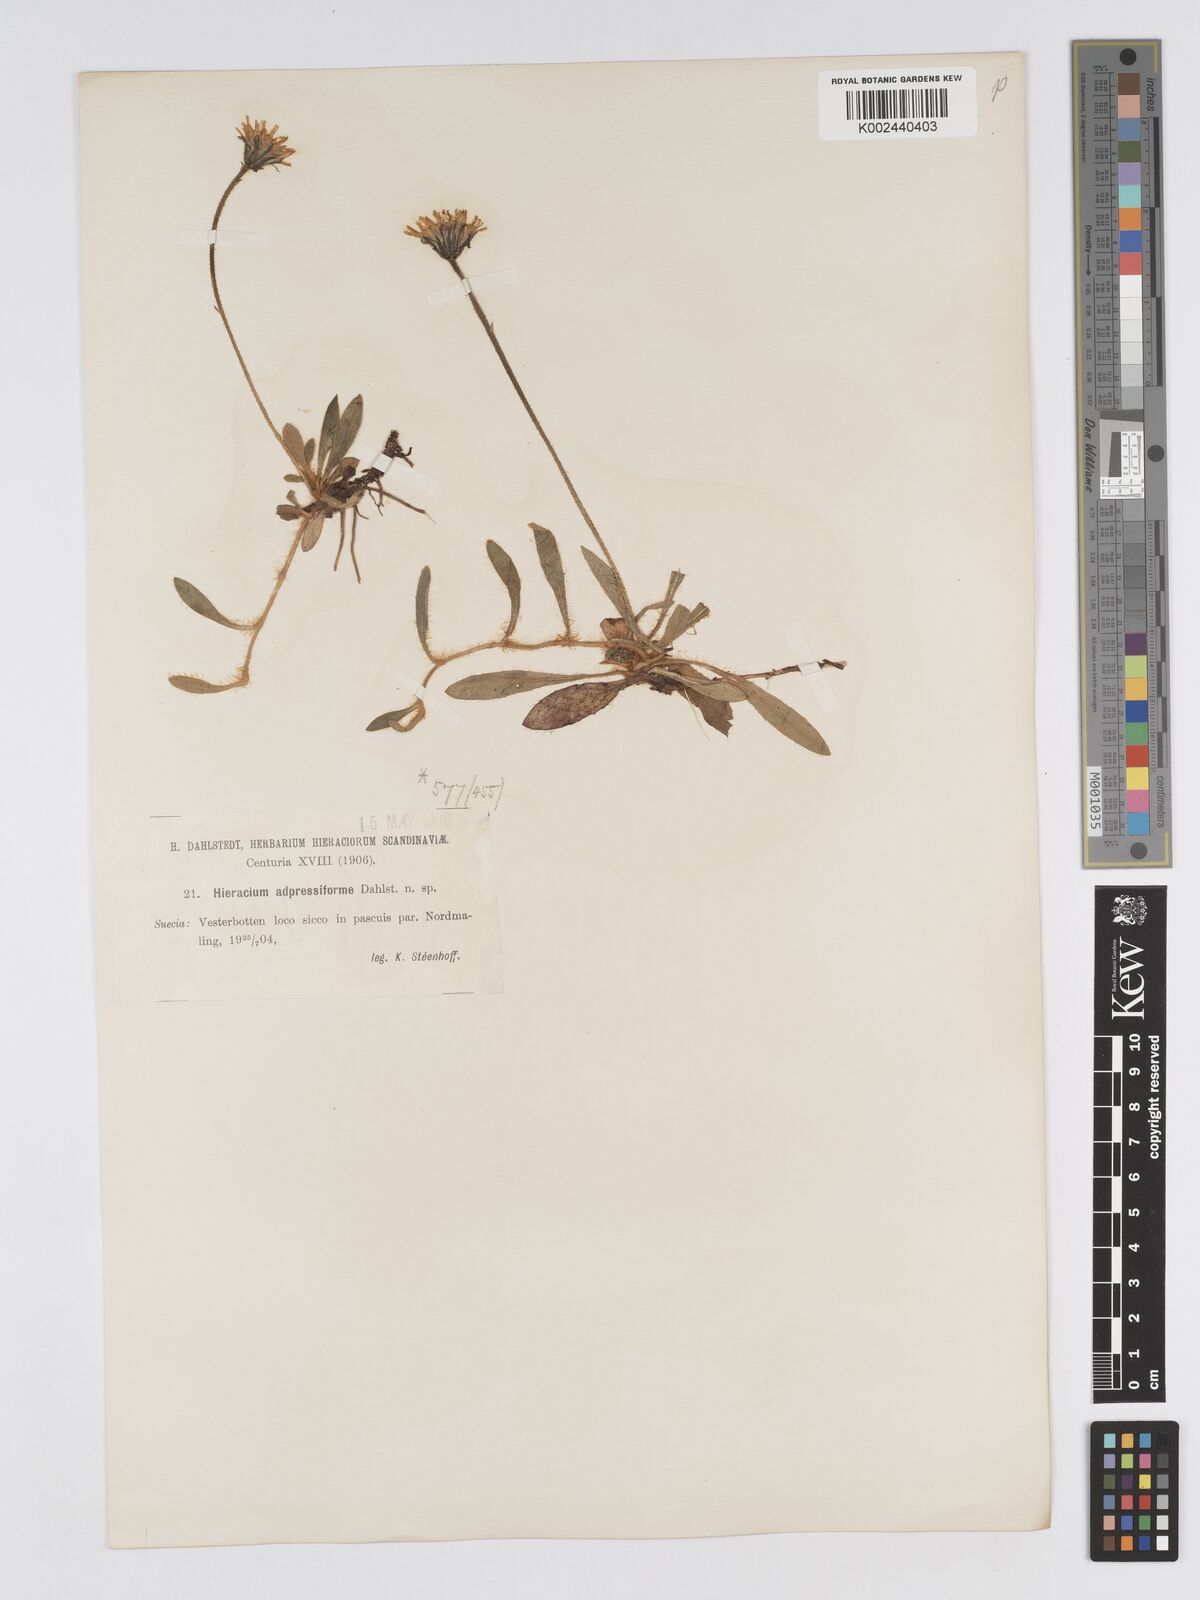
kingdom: Plantae
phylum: Tracheophyta
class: Magnoliopsida
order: Asterales
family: Asteraceae
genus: Pilosella
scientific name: Pilosella officinarum
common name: Mouse-ear hawkweed
